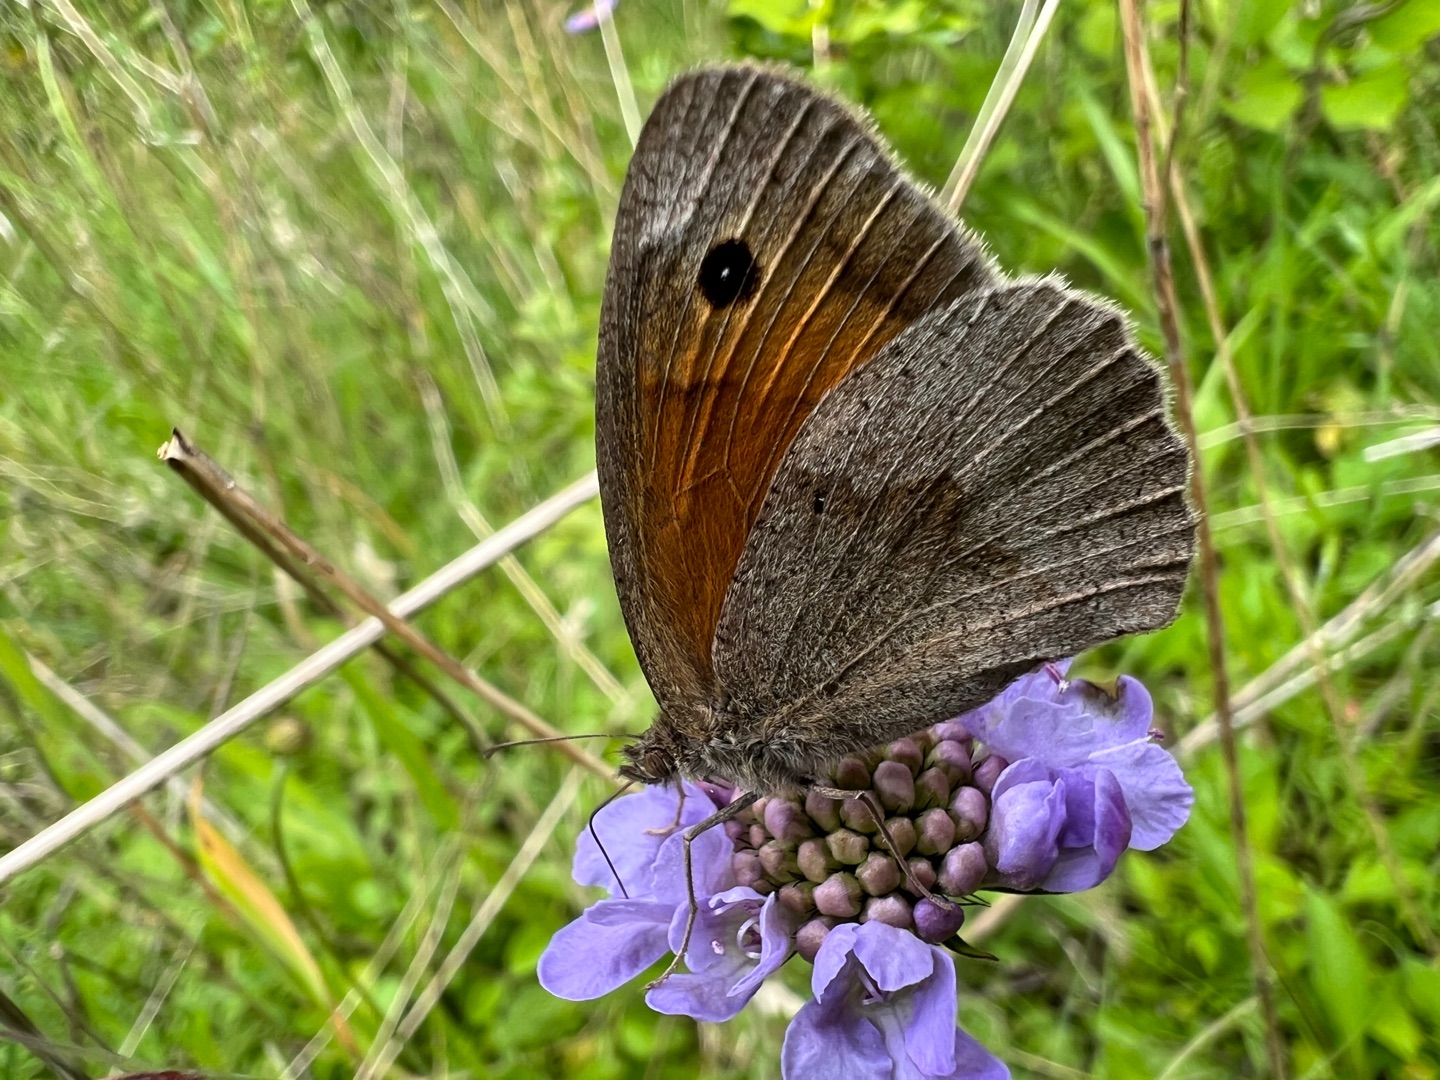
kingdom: Animalia
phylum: Arthropoda
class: Insecta
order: Lepidoptera
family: Nymphalidae
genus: Maniola
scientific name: Maniola jurtina
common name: Græsrandøje
